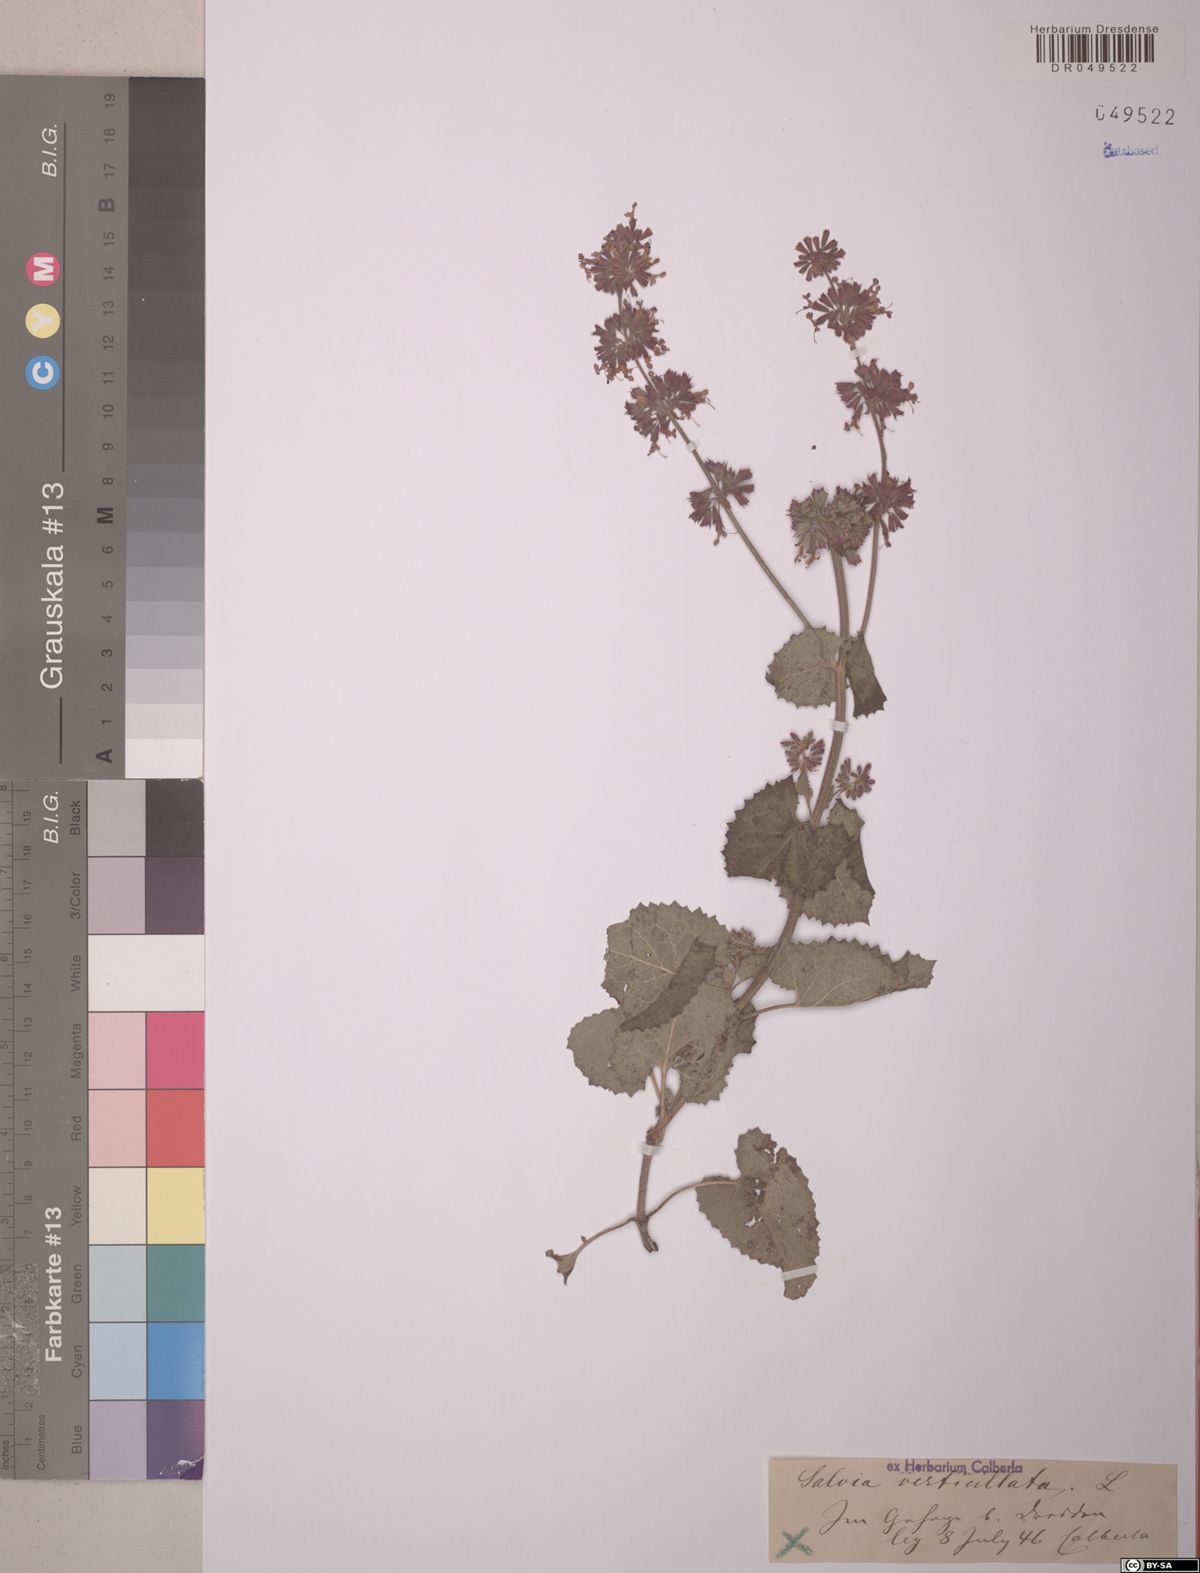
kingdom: Plantae
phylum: Tracheophyta
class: Magnoliopsida
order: Lamiales
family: Lamiaceae
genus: Salvia
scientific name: Salvia verticillata
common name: Whorled clary
